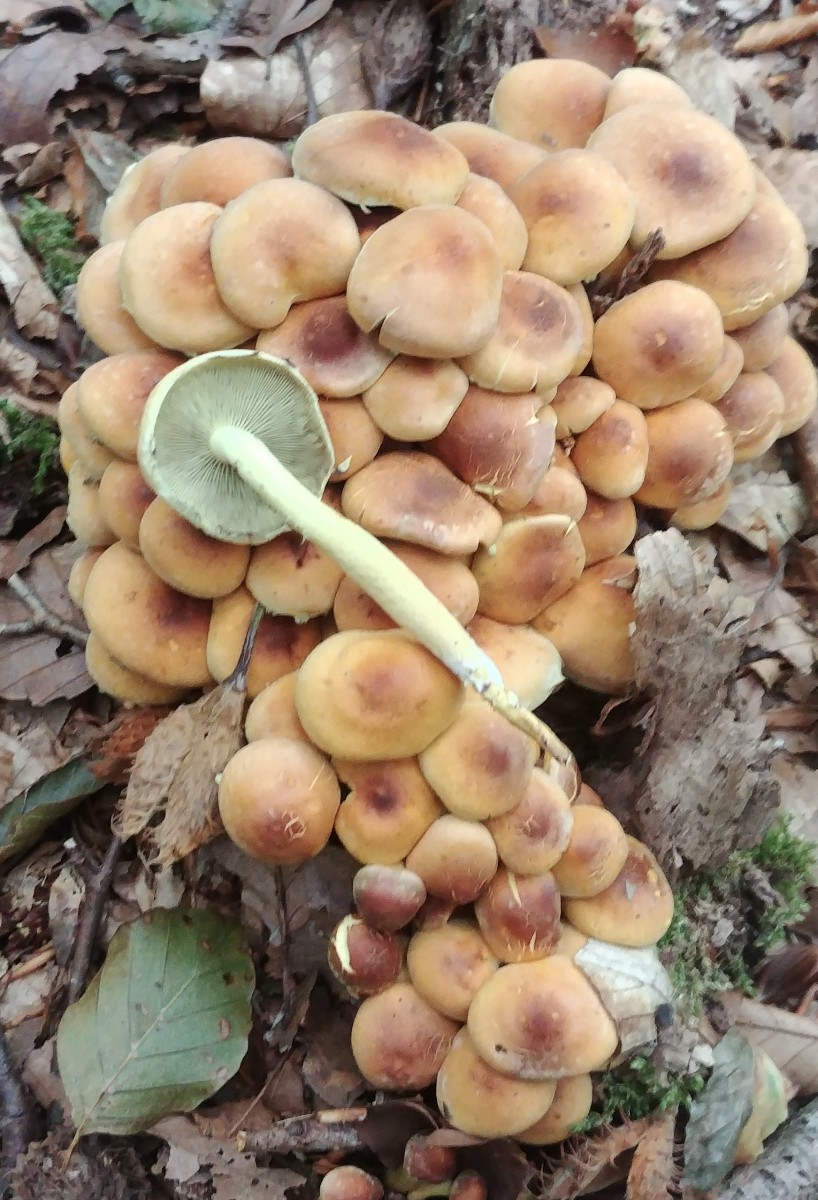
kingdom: Fungi
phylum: Basidiomycota
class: Agaricomycetes
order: Agaricales
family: Strophariaceae
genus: Hypholoma
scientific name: Hypholoma fasciculare
